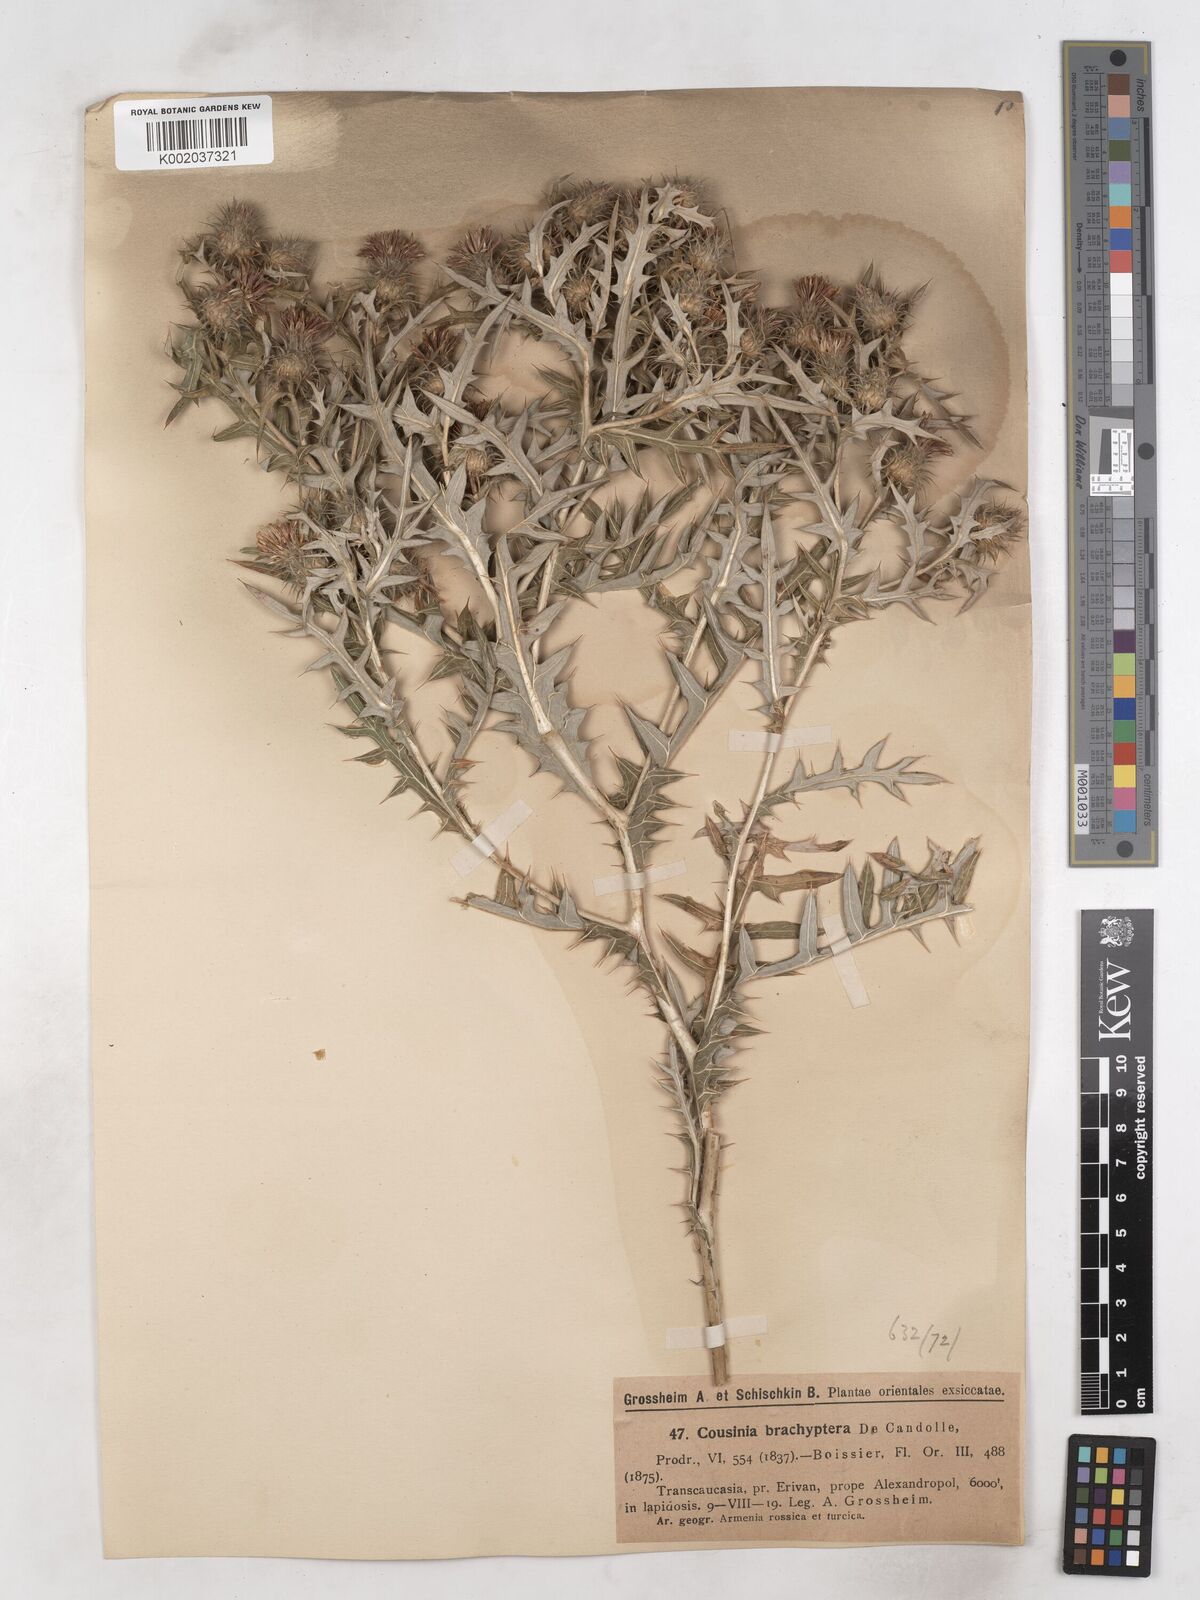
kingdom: Plantae
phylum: Tracheophyta
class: Magnoliopsida
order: Asterales
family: Asteraceae
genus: Cousinia
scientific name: Cousinia brachyptera
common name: Short-winged cousinia
